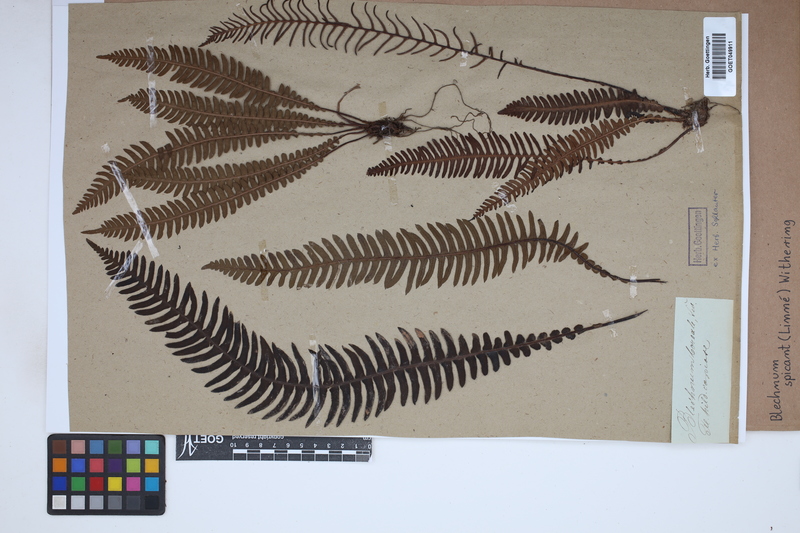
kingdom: Plantae
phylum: Tracheophyta
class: Polypodiopsida
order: Polypodiales
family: Blechnaceae
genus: Struthiopteris
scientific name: Struthiopteris spicant
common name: Deer fern
